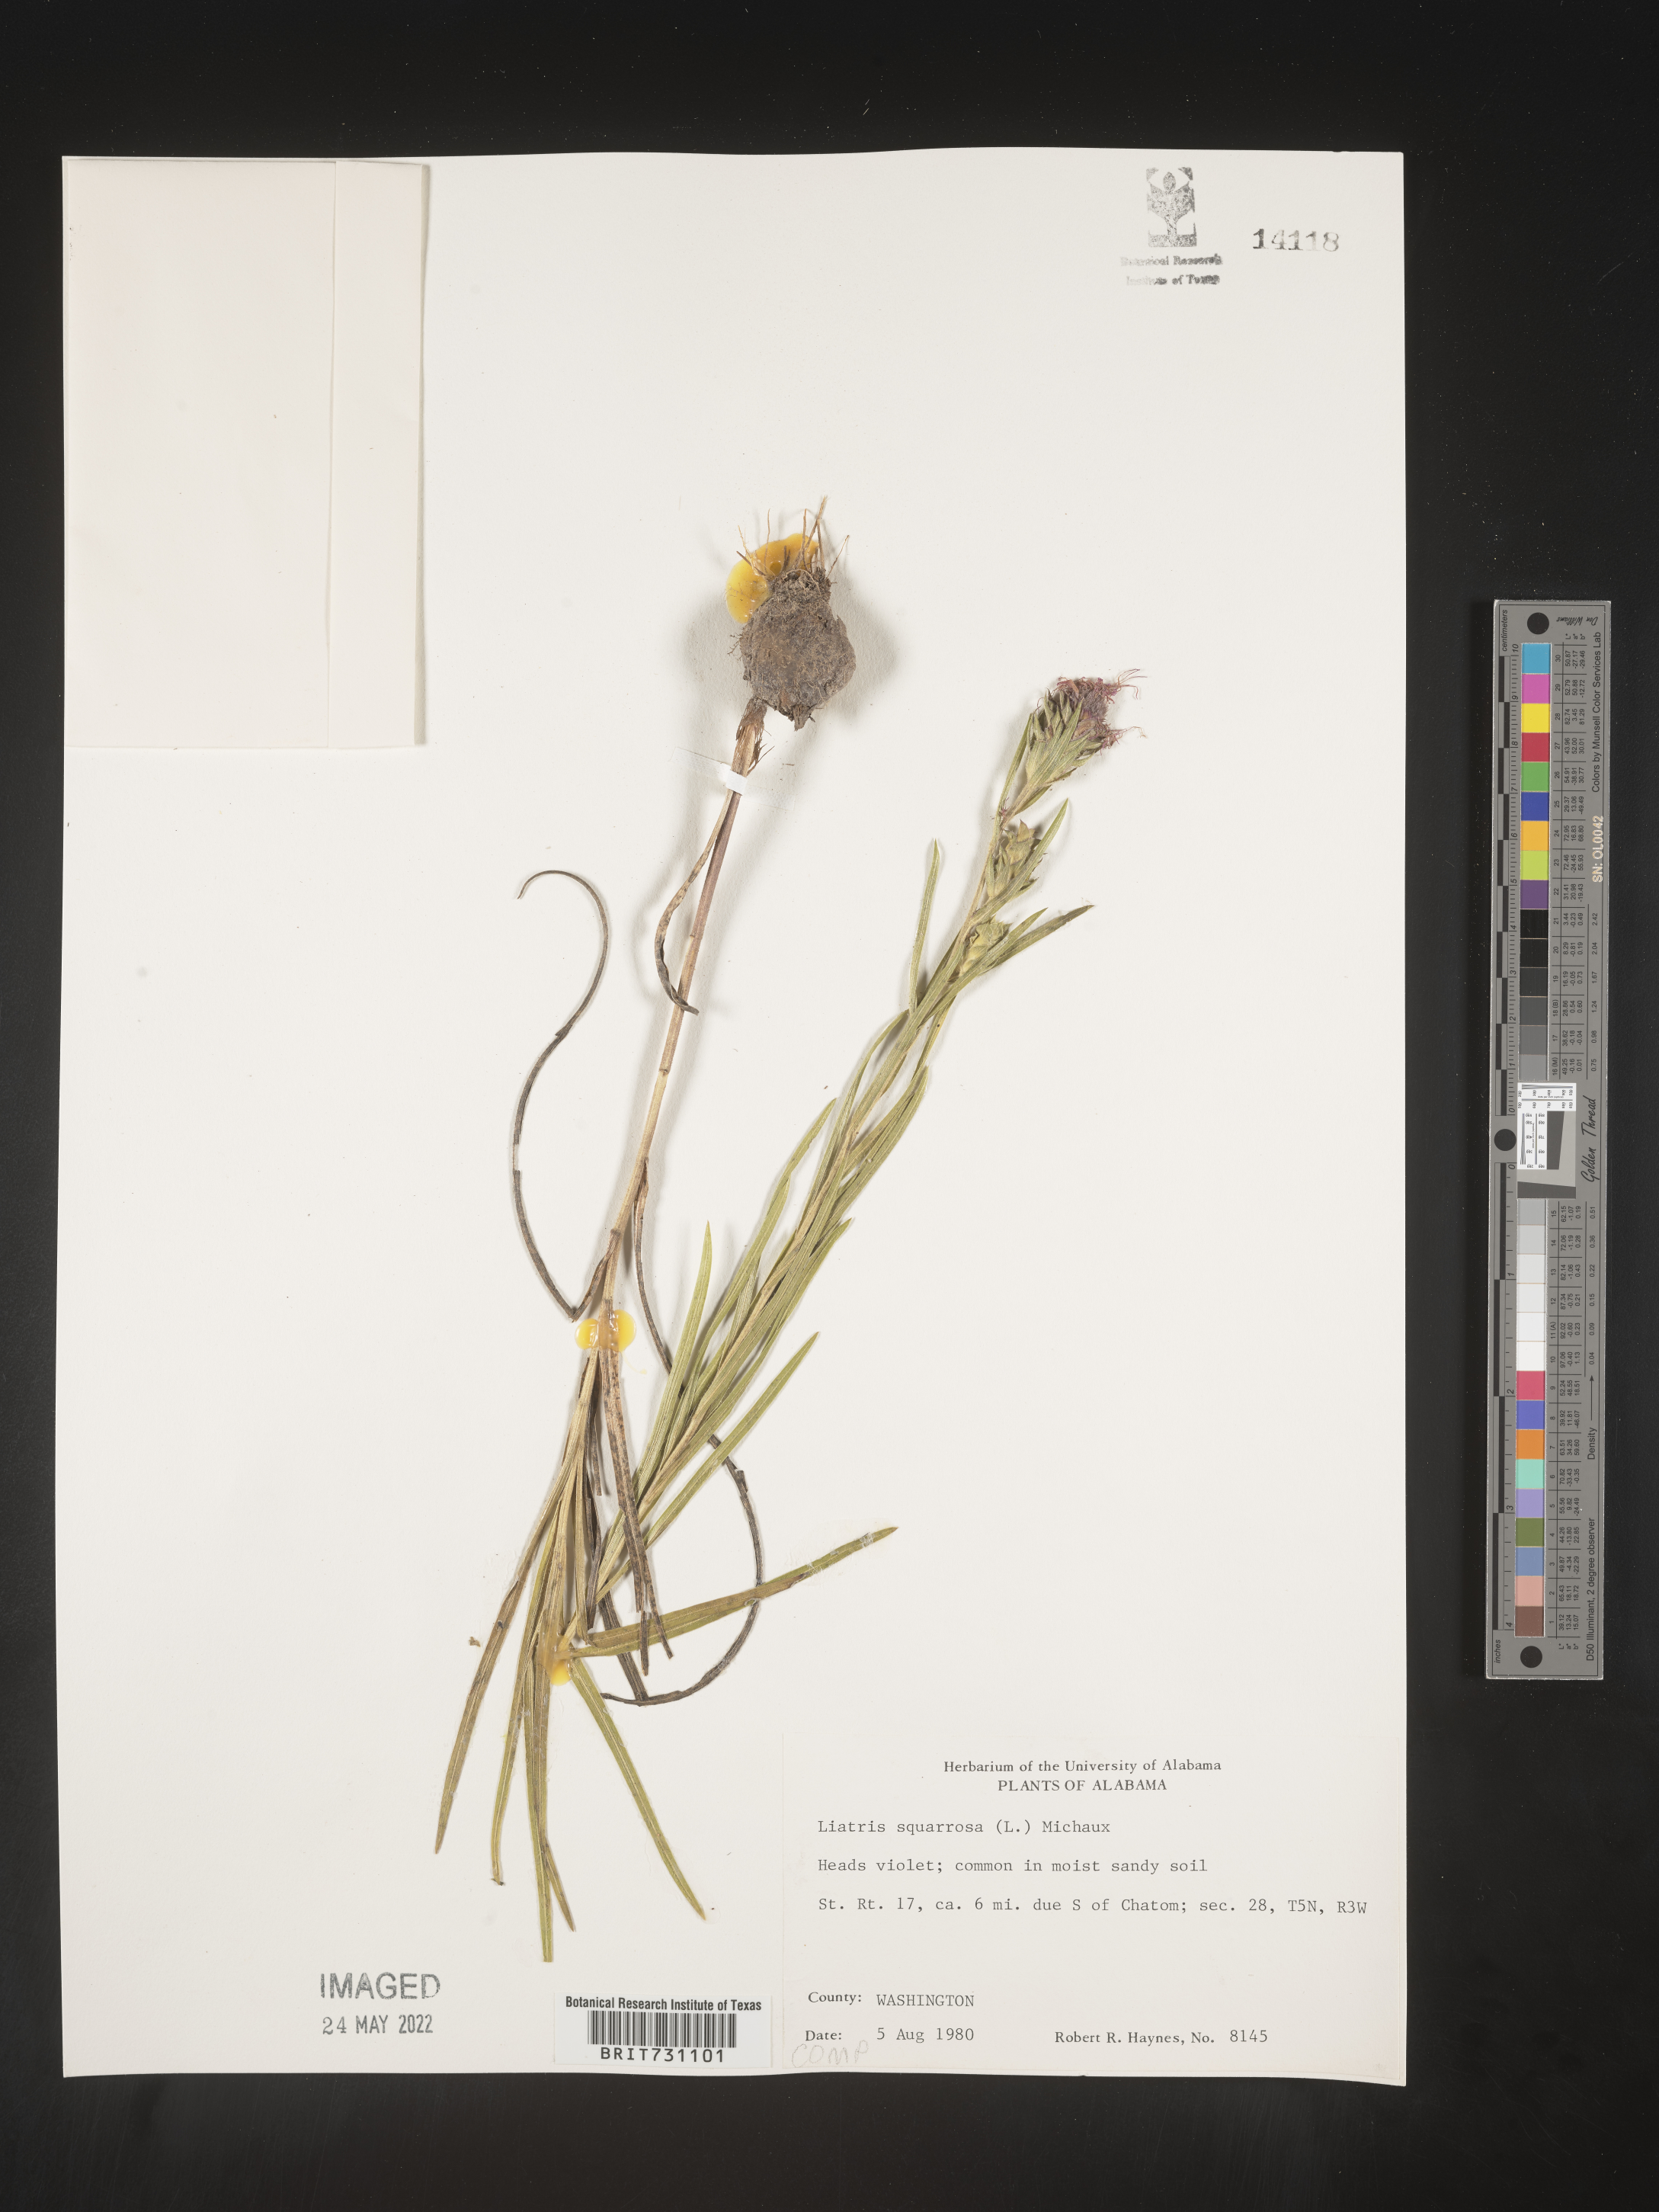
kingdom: Plantae
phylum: Tracheophyta
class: Magnoliopsida
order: Asterales
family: Asteraceae
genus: Liatris
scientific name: Liatris squarrosa
